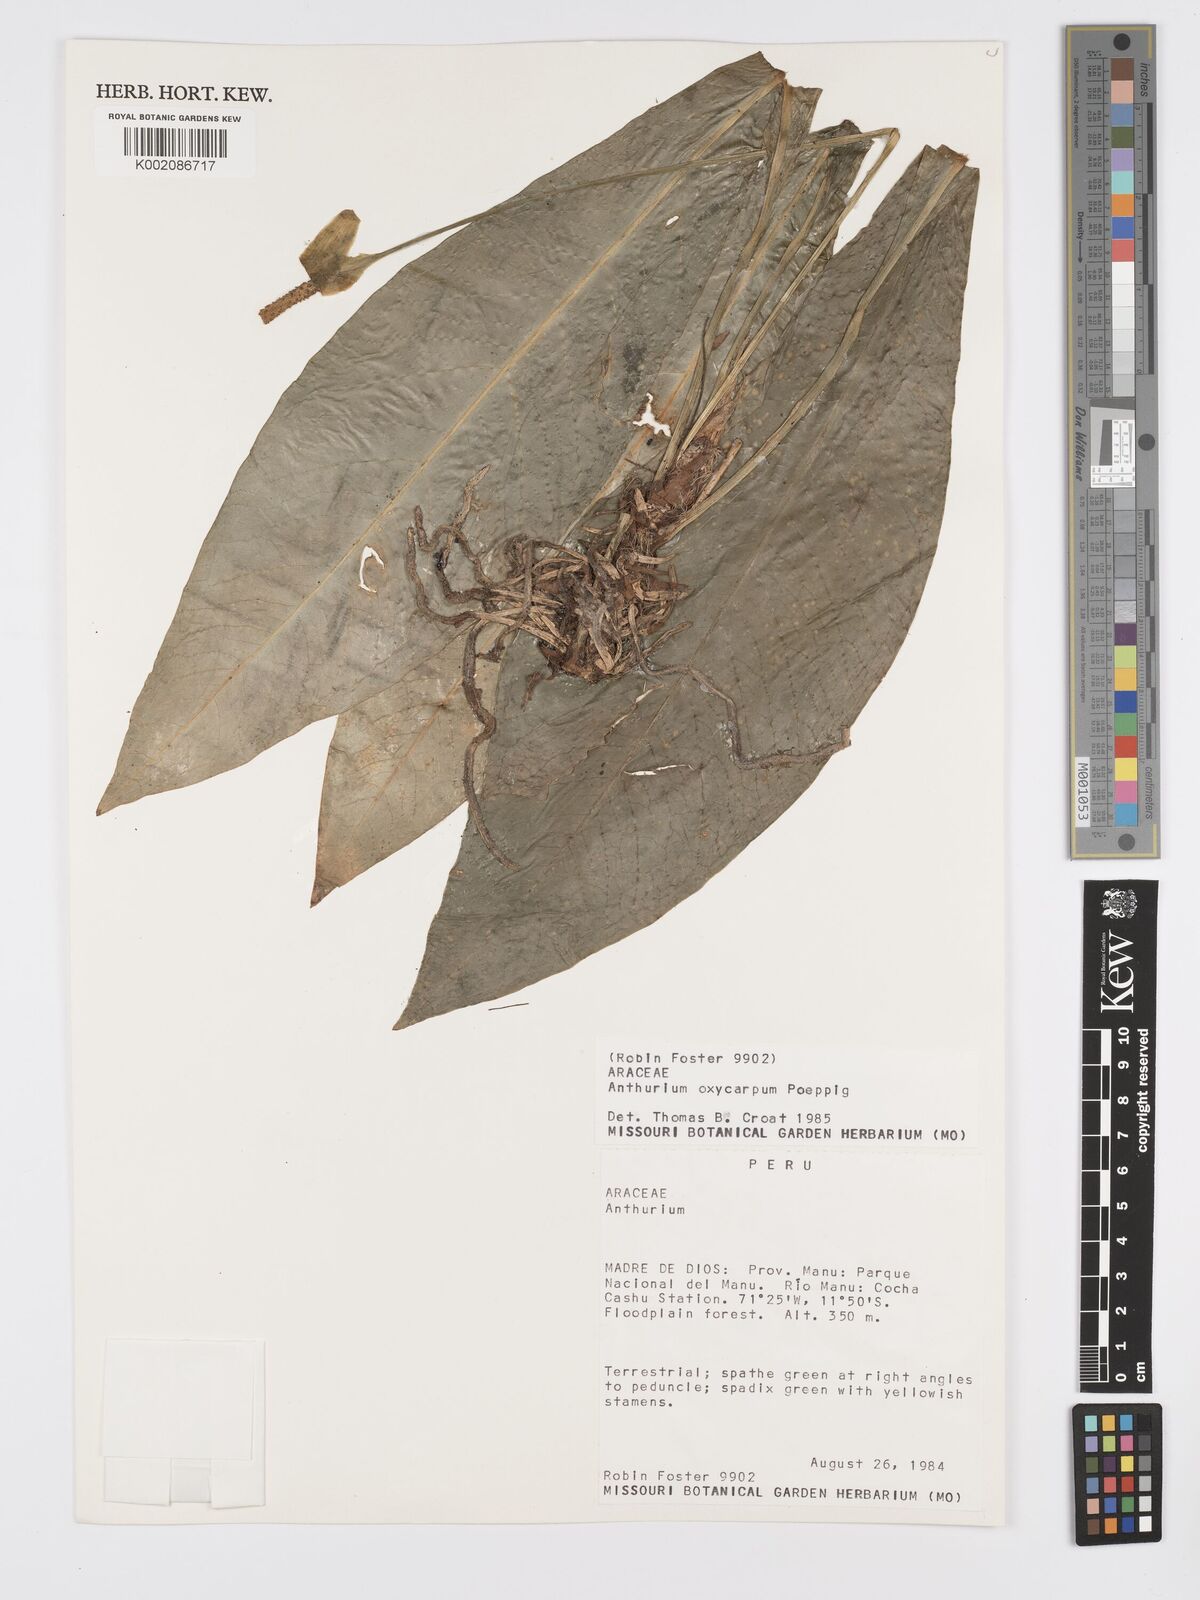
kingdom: Plantae
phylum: Tracheophyta
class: Liliopsida
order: Alismatales
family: Araceae
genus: Anthurium
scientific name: Anthurium oxycarpum
